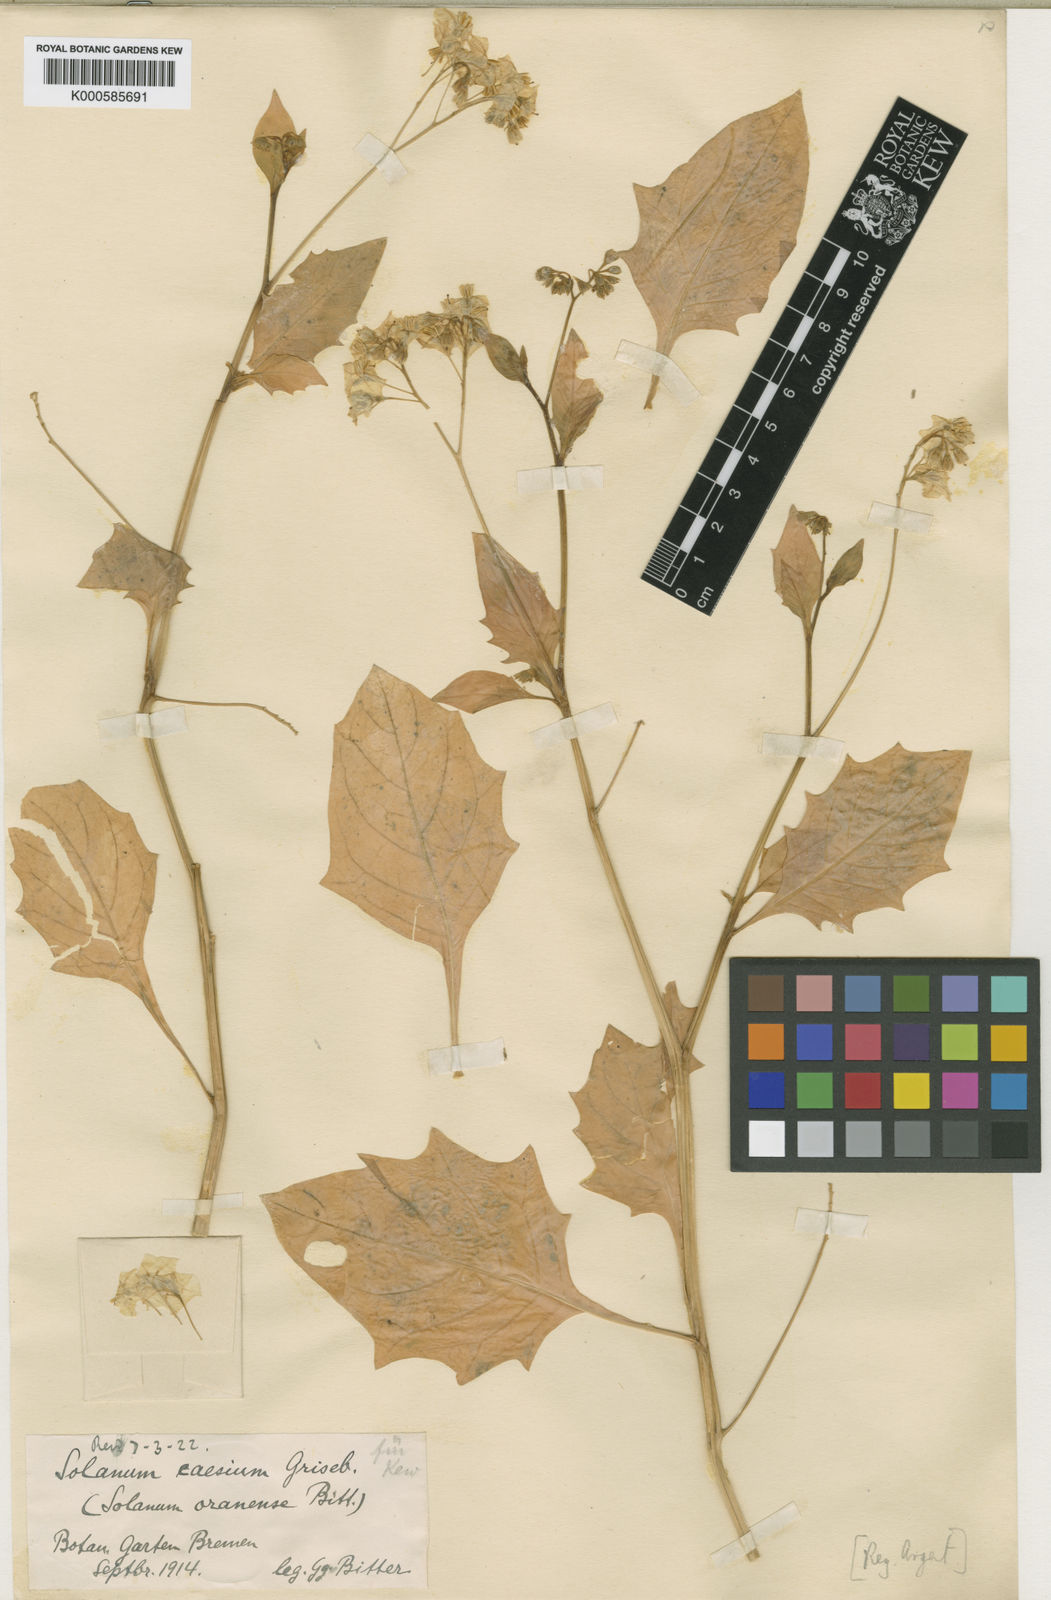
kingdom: Plantae
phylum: Tracheophyta
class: Magnoliopsida
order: Solanales
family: Solanaceae
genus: Solanum
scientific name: Solanum furcatum
